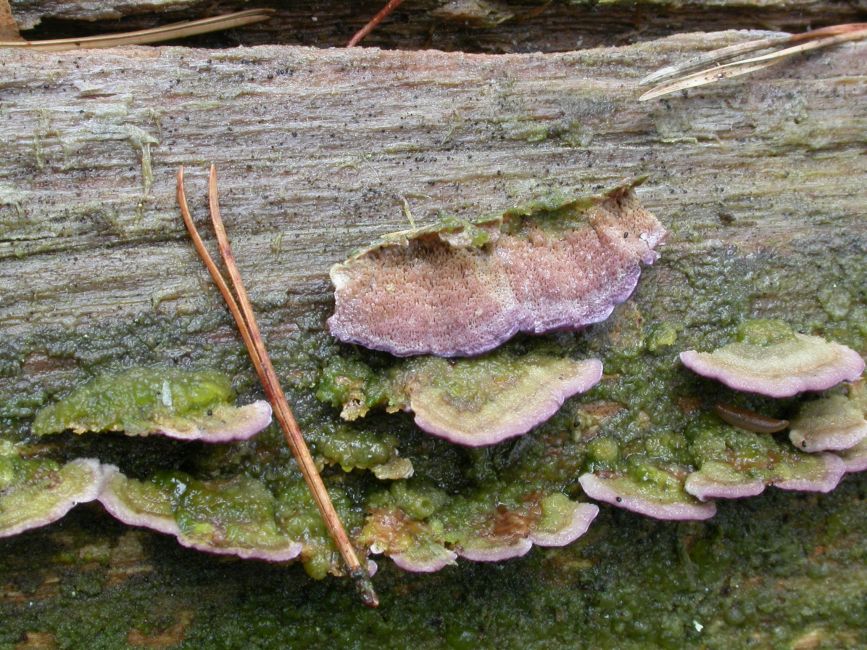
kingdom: Fungi
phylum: Basidiomycota
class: Agaricomycetes
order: Hymenochaetales
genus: Trichaptum
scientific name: Trichaptum abietinum
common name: almindelig violporesvamp
